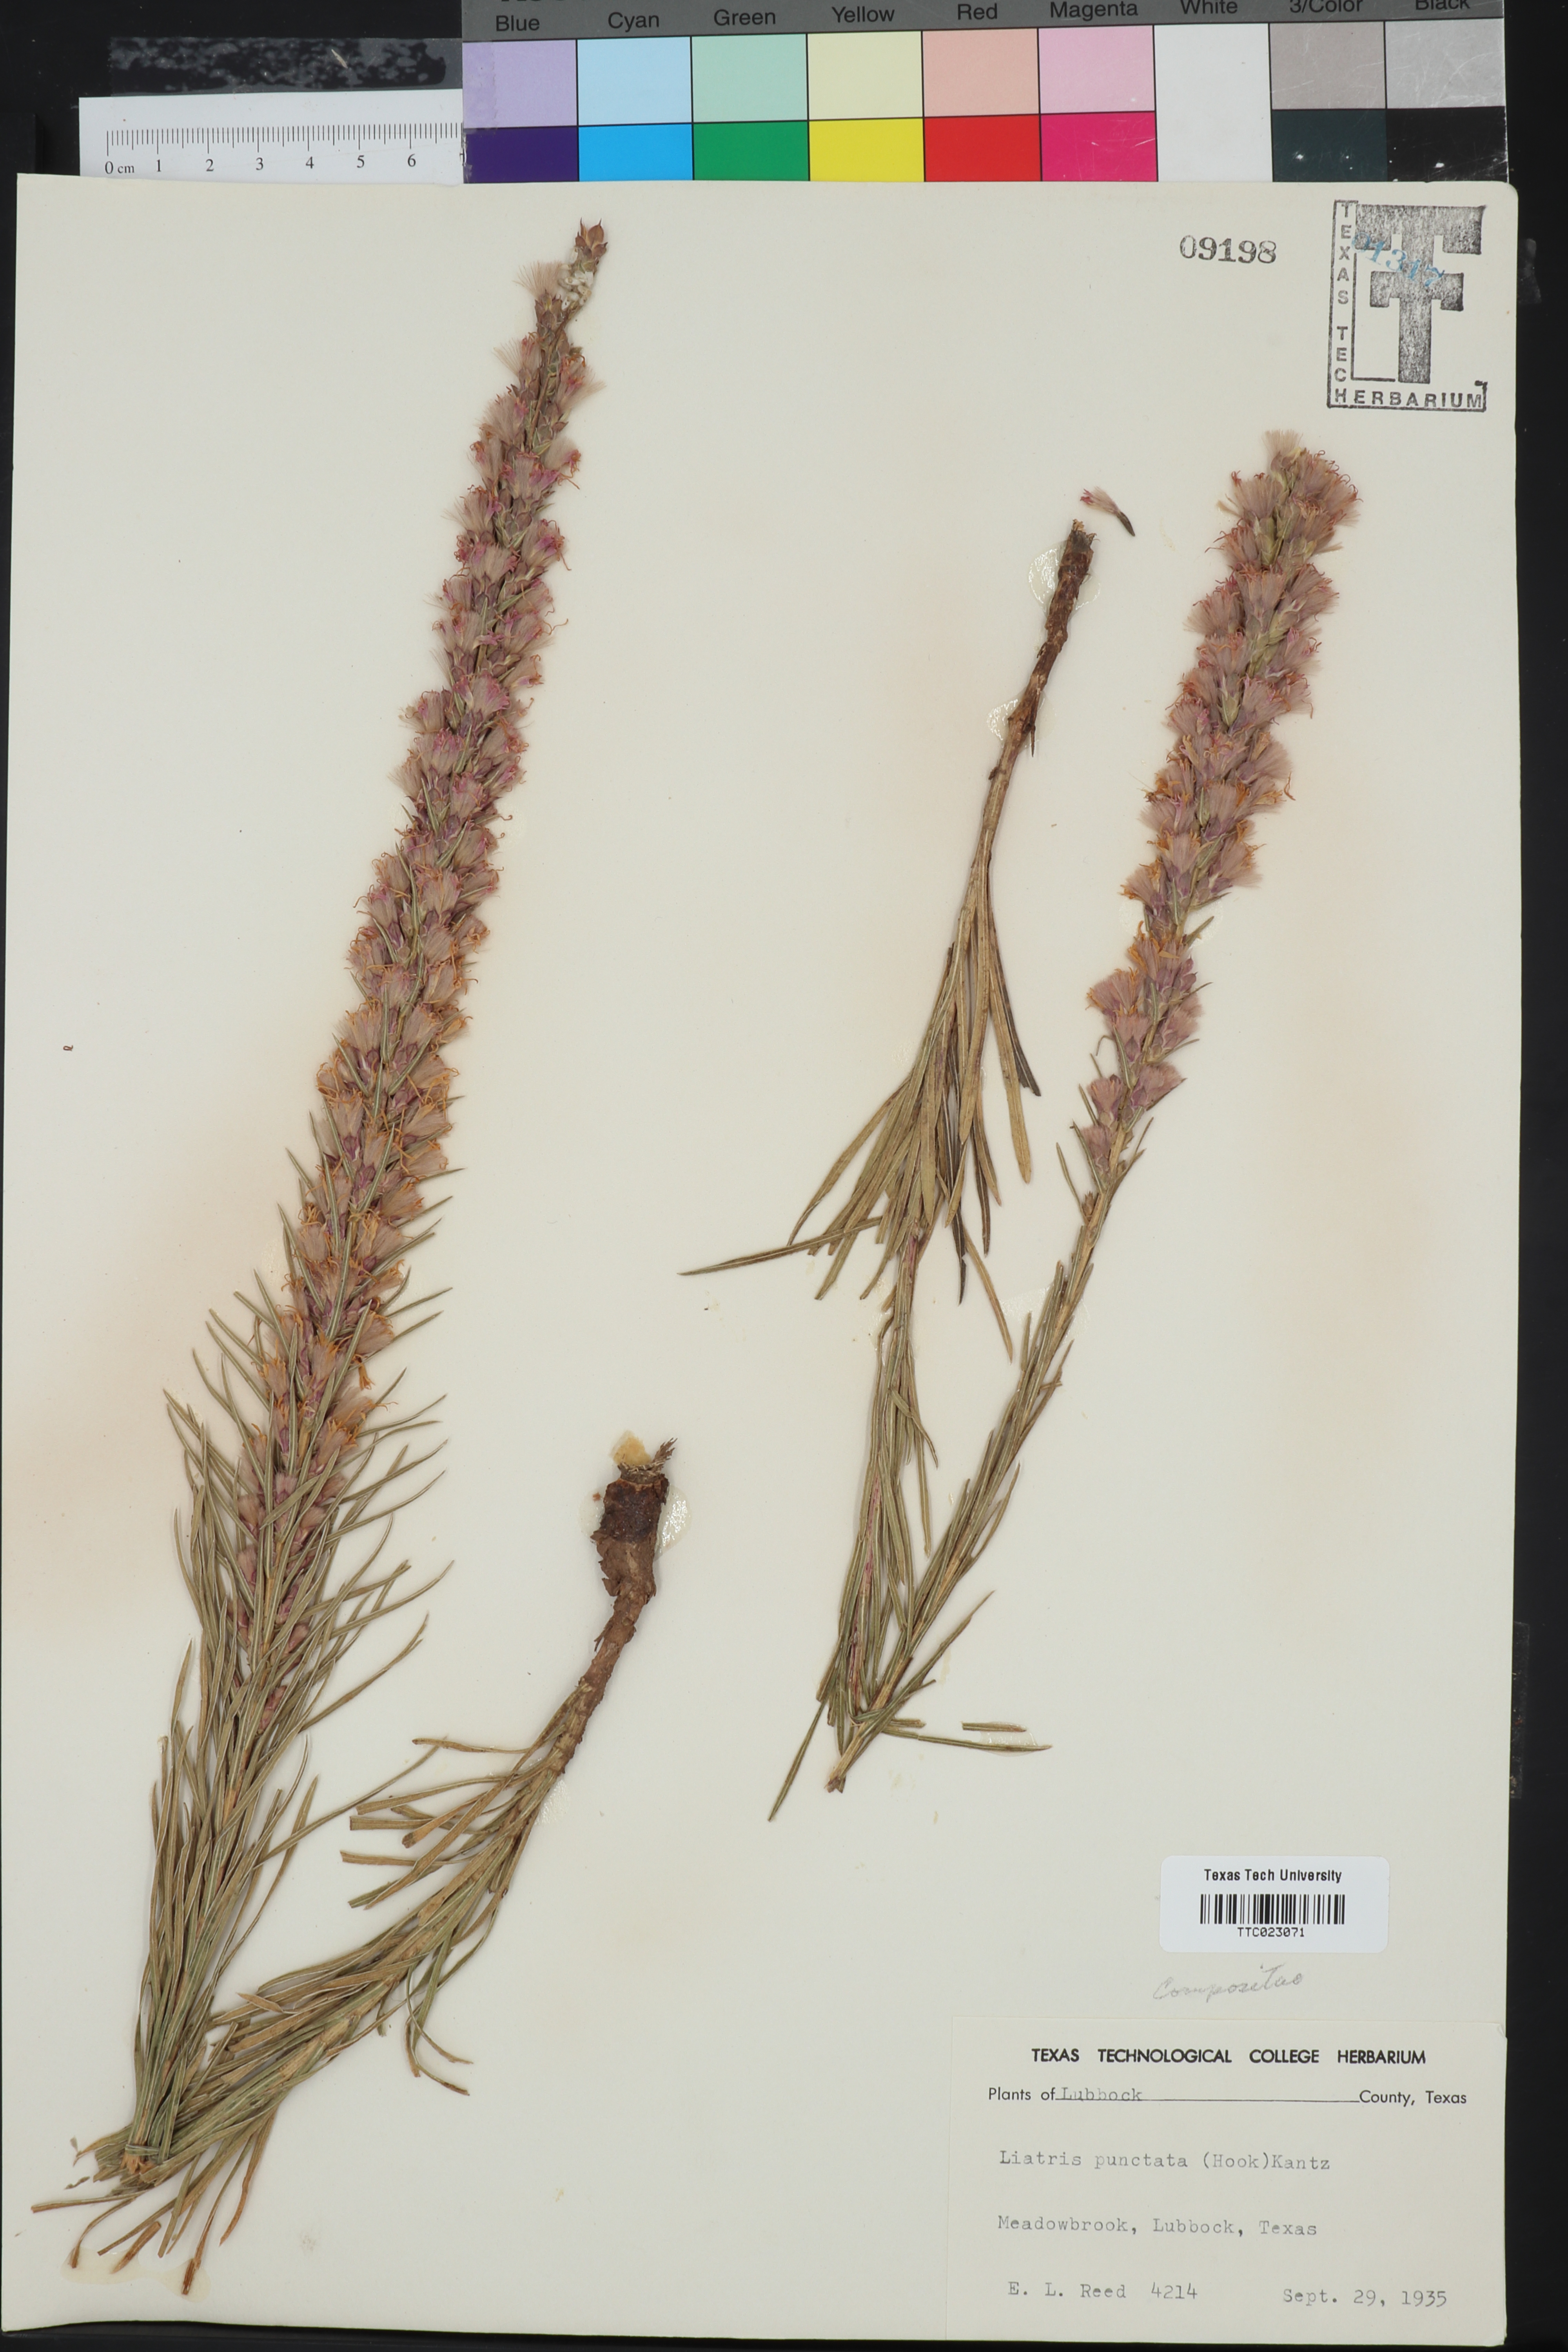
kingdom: Plantae
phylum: Tracheophyta
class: Magnoliopsida
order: Asterales
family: Asteraceae
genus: Liatris
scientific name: Liatris punctata
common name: Dotted gayfeather
